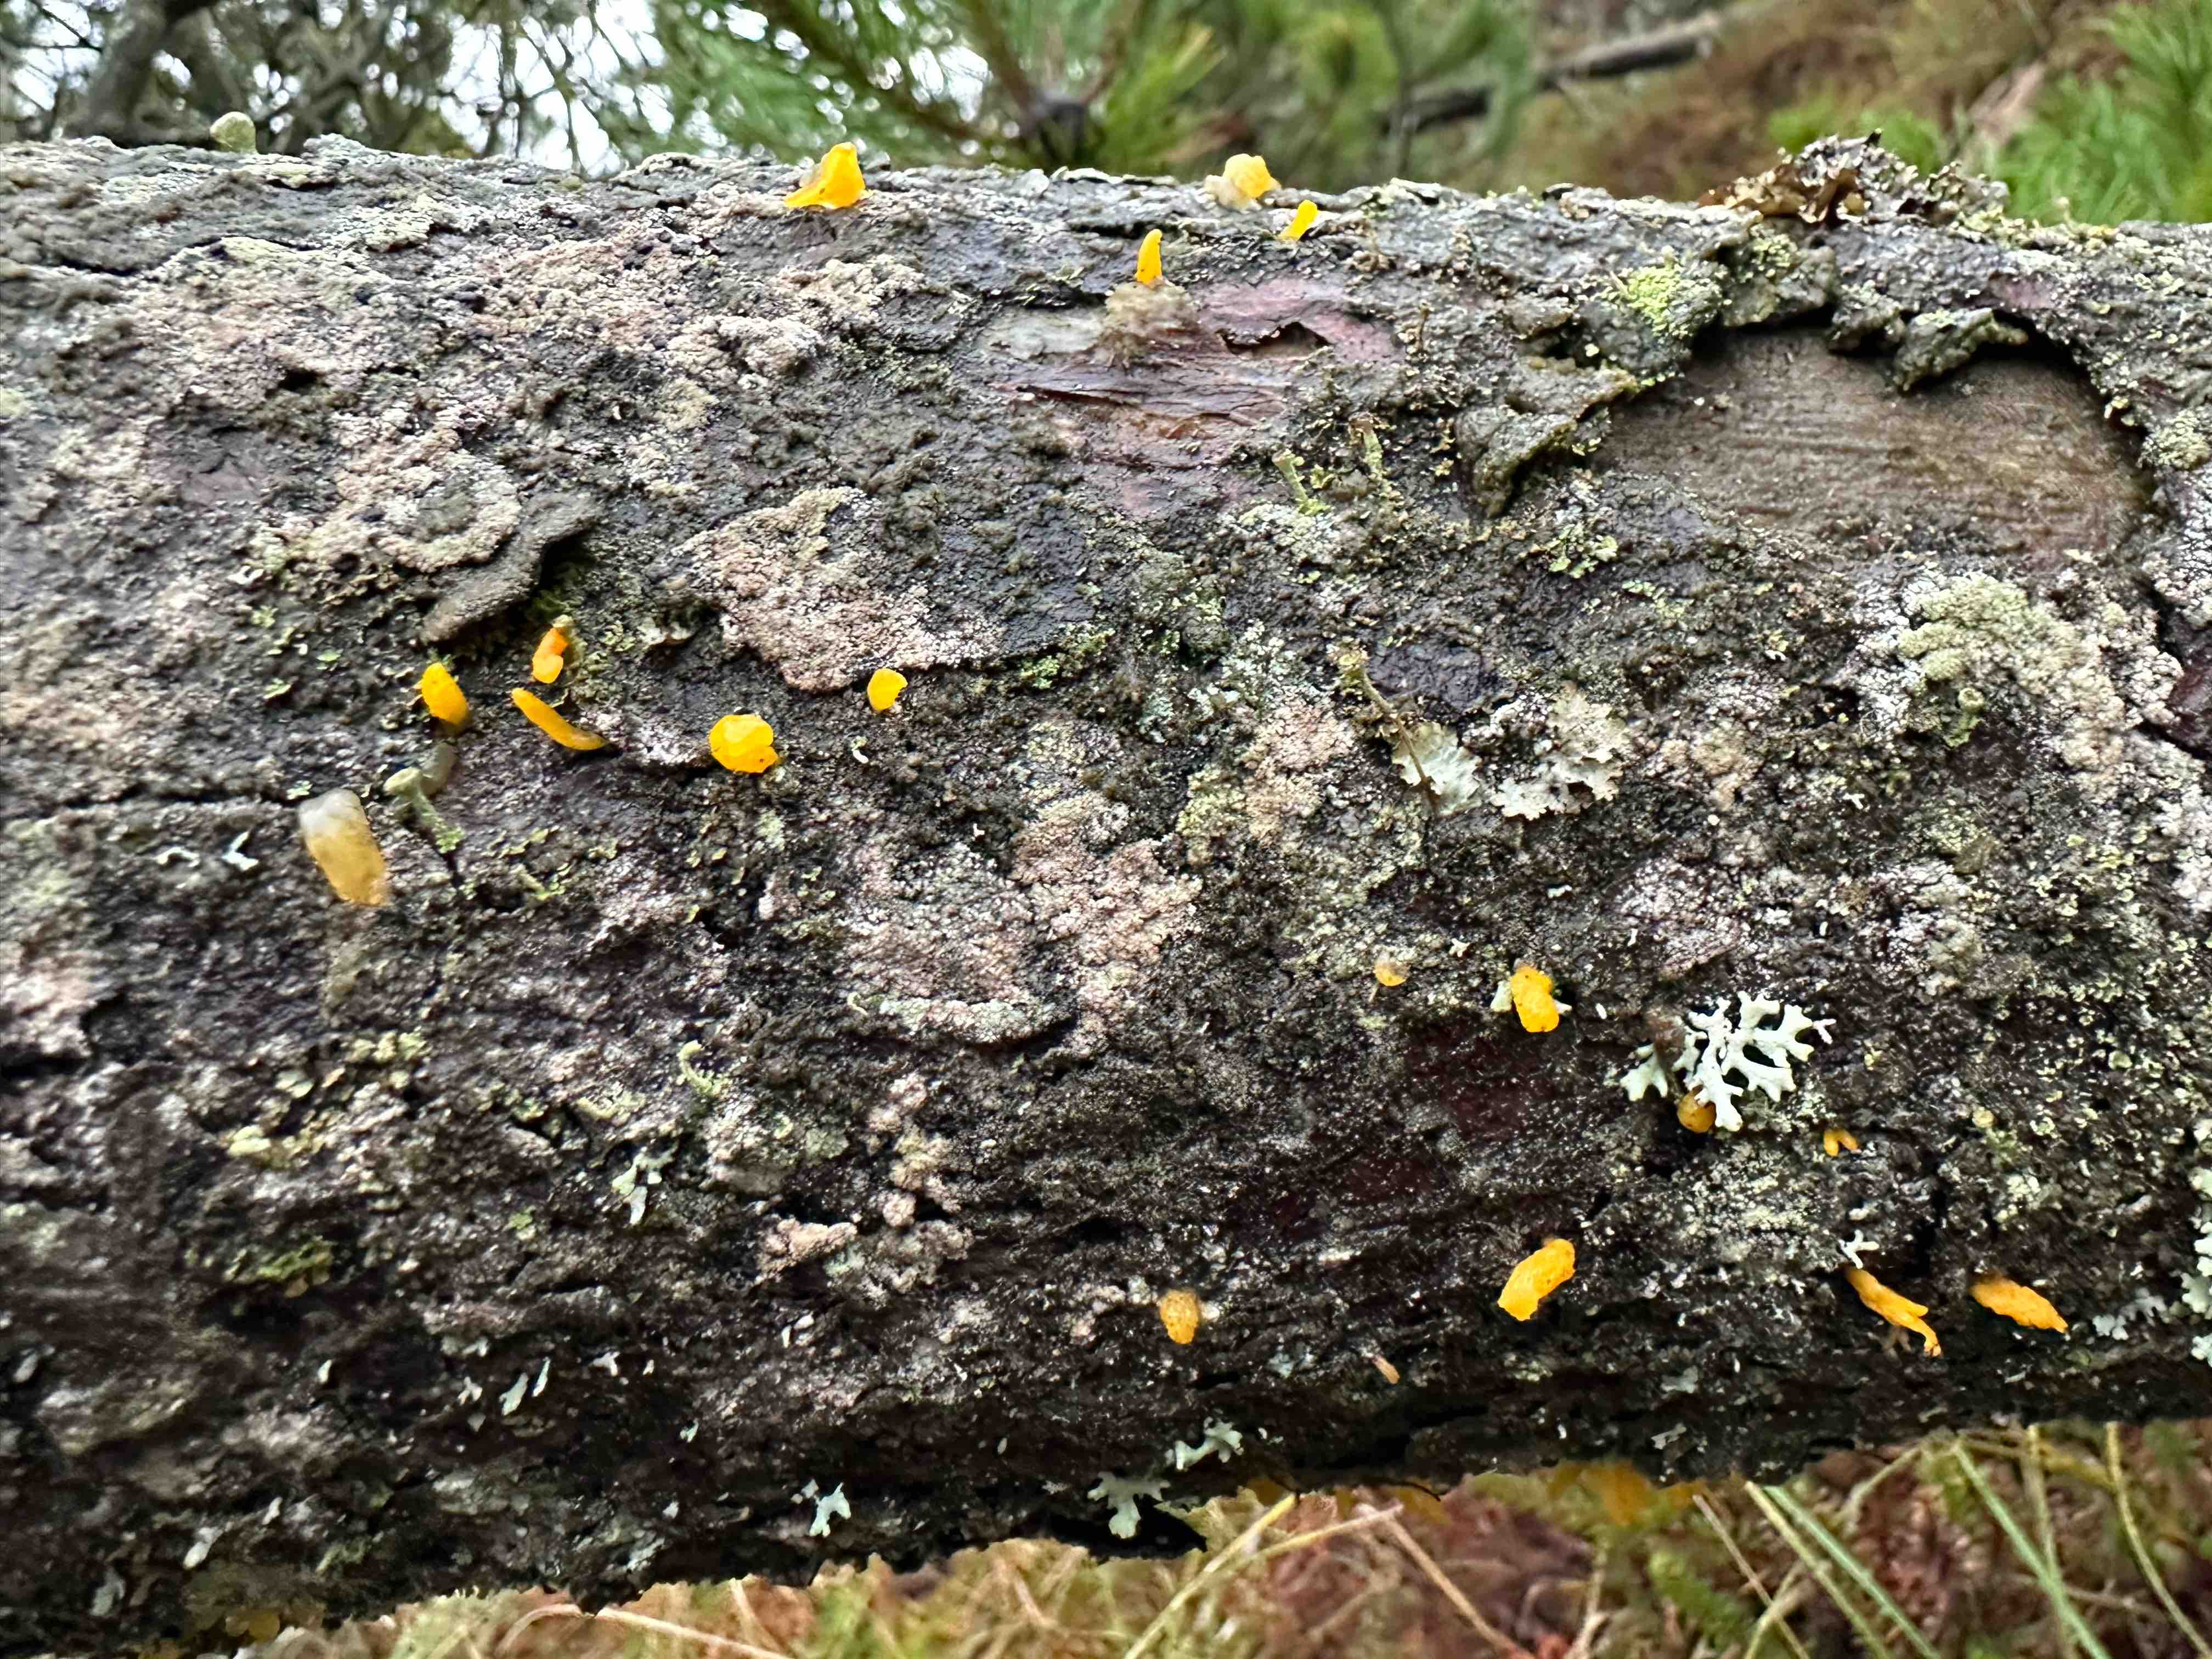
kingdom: Fungi
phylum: Basidiomycota
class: Dacrymycetes
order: Dacrymycetales
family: Dacrymycetaceae
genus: Calocera
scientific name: Calocera furcata
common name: fyrre-guldgaffel
